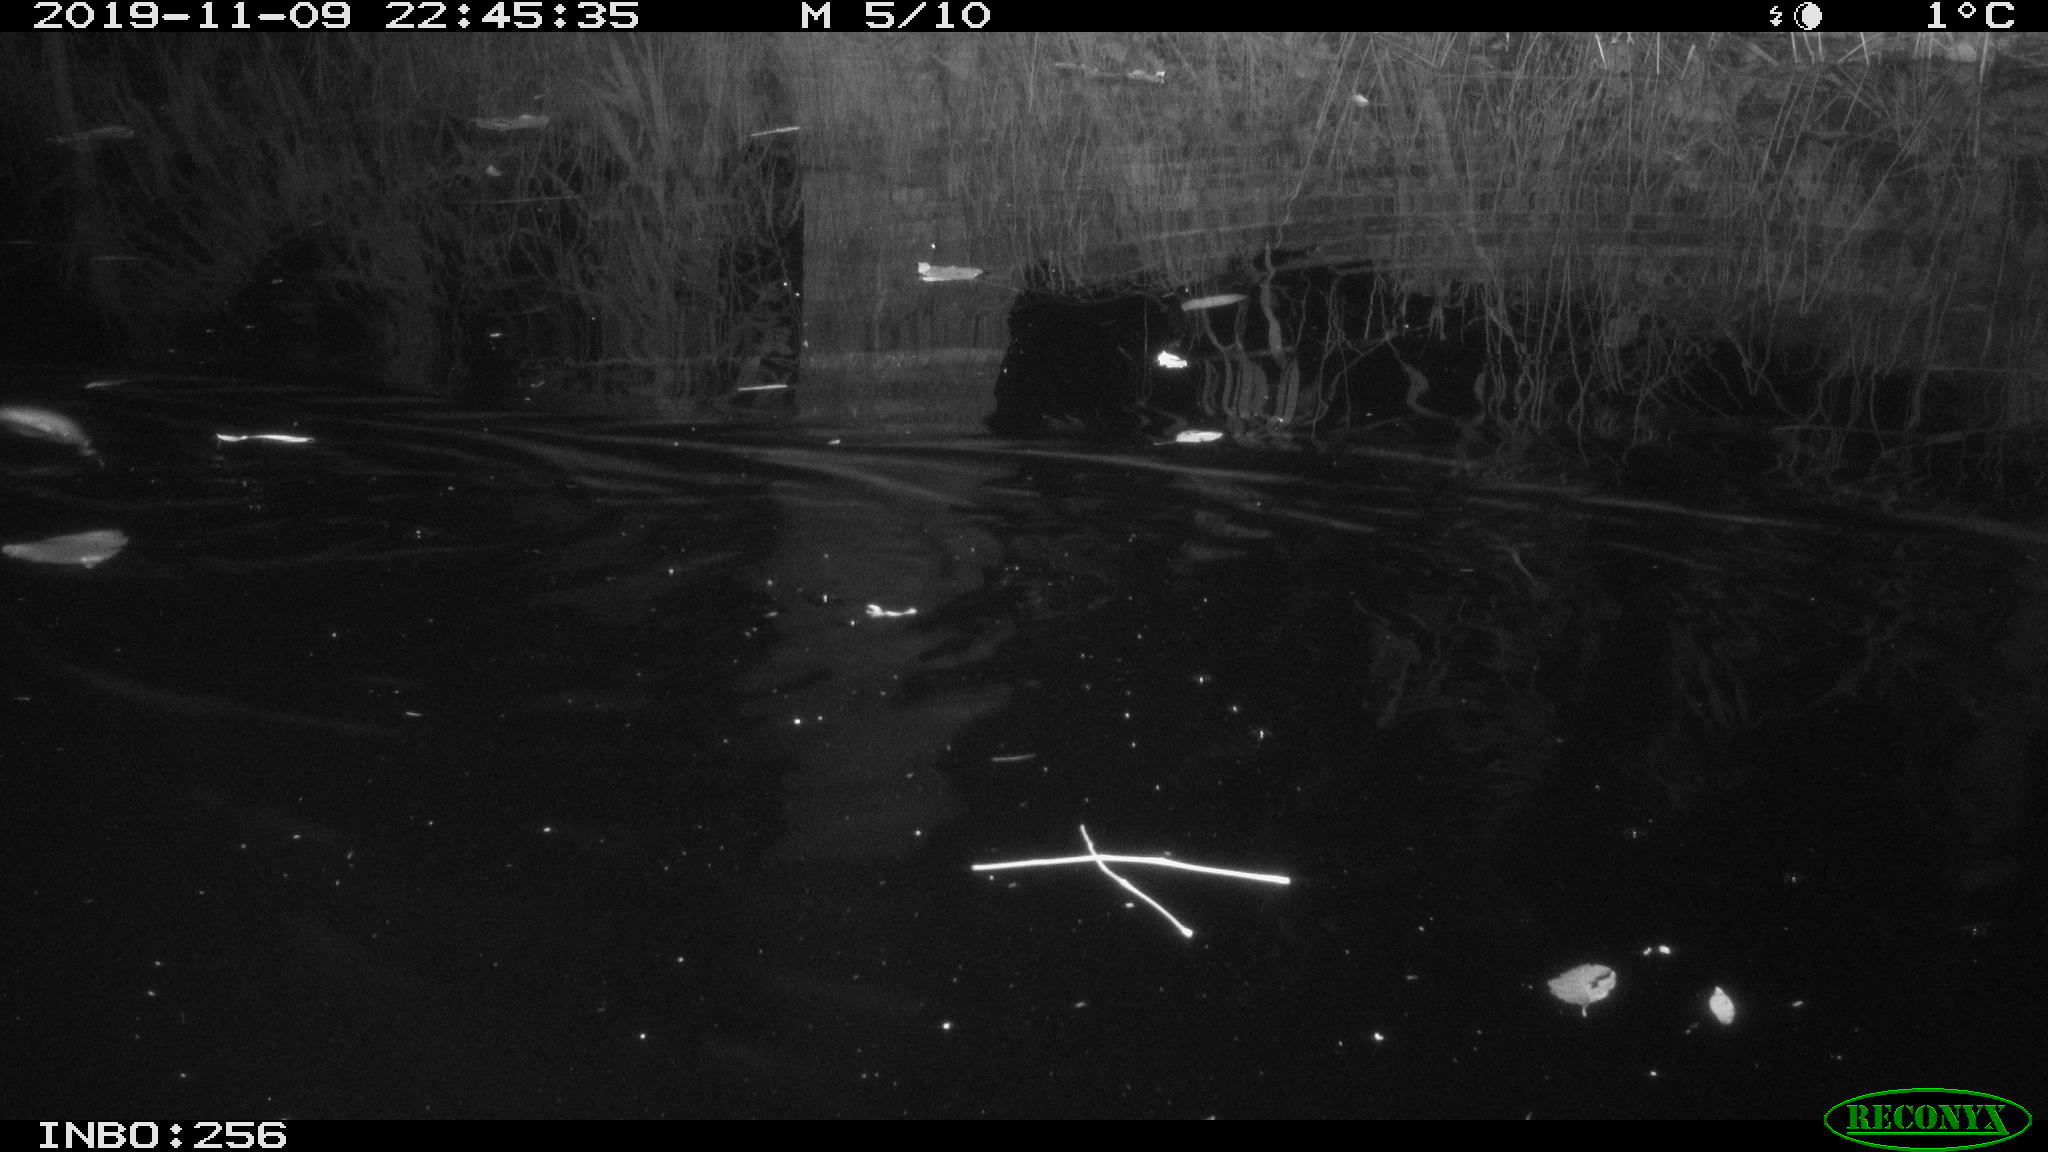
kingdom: Animalia
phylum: Chordata
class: Mammalia
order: Rodentia
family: Cricetidae
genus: Ondatra
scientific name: Ondatra zibethicus
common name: Muskrat
